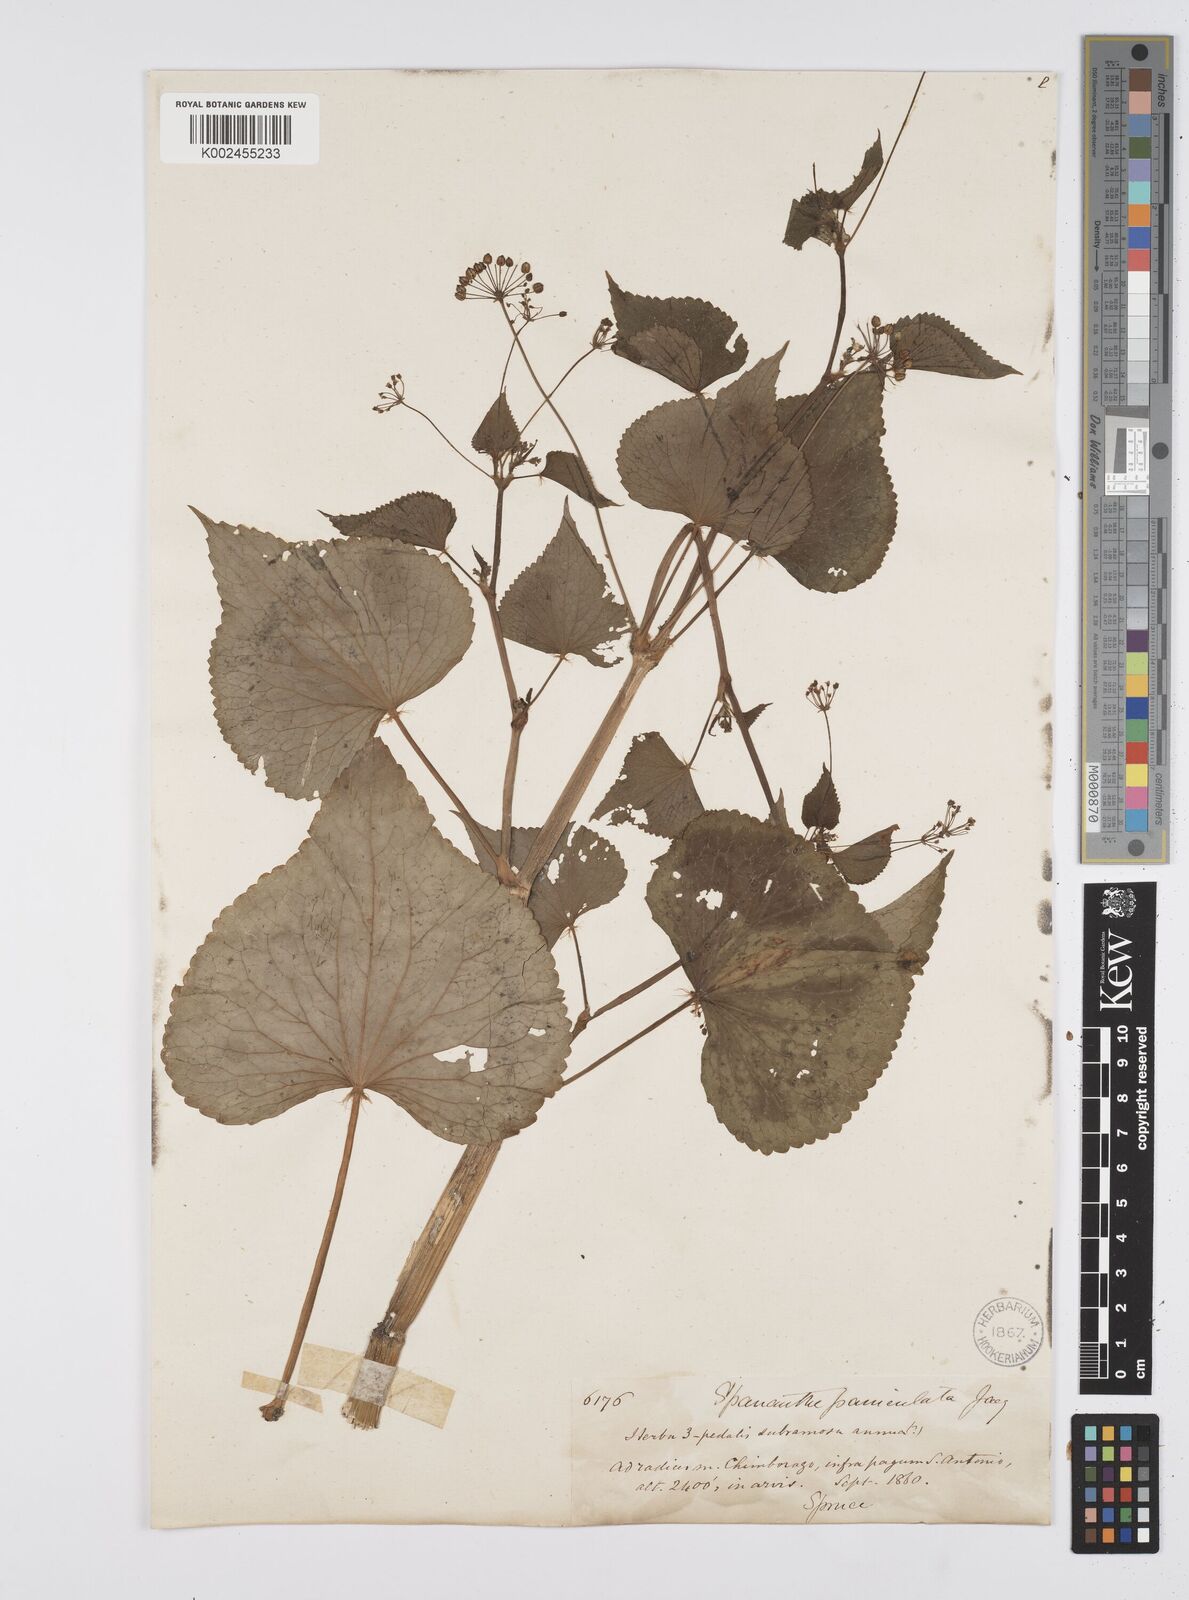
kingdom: Plantae
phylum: Tracheophyta
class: Magnoliopsida
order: Apiales
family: Apiaceae
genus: Azorella
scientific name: Azorella
